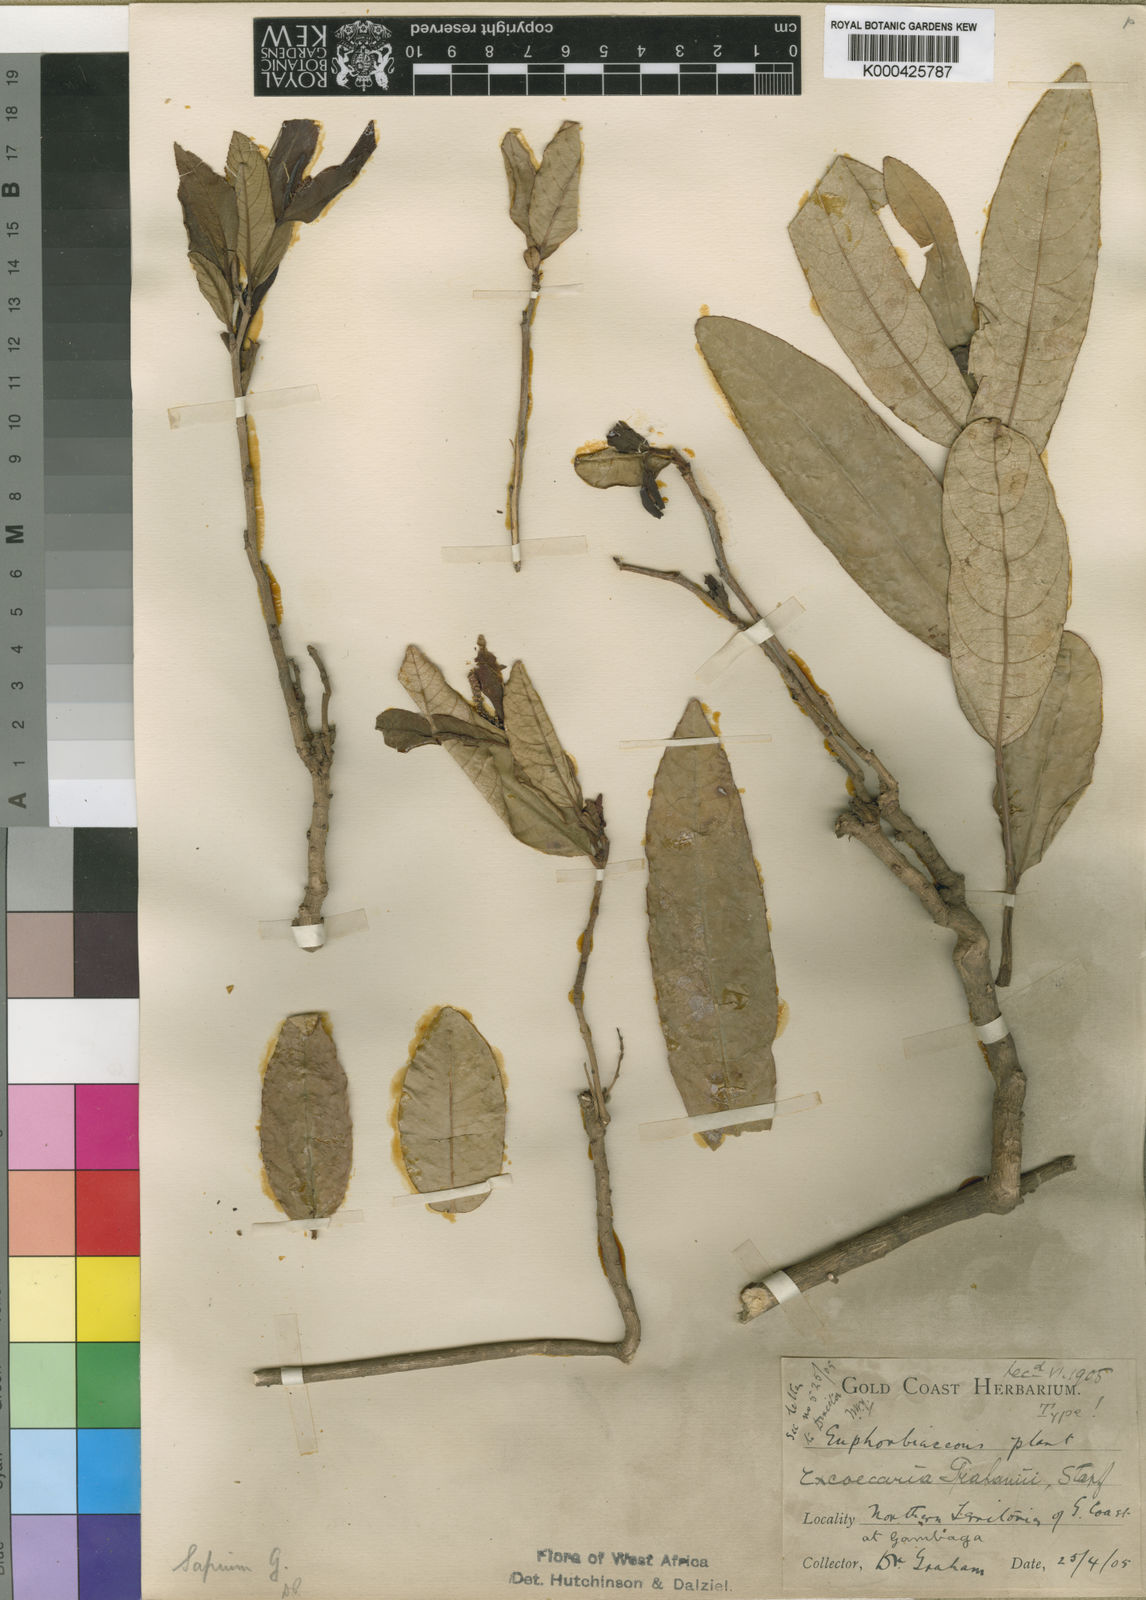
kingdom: Plantae
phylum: Tracheophyta
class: Magnoliopsida
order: Malpighiales
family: Euphorbiaceae
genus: Excoecaria
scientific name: Excoecaria grahamii
